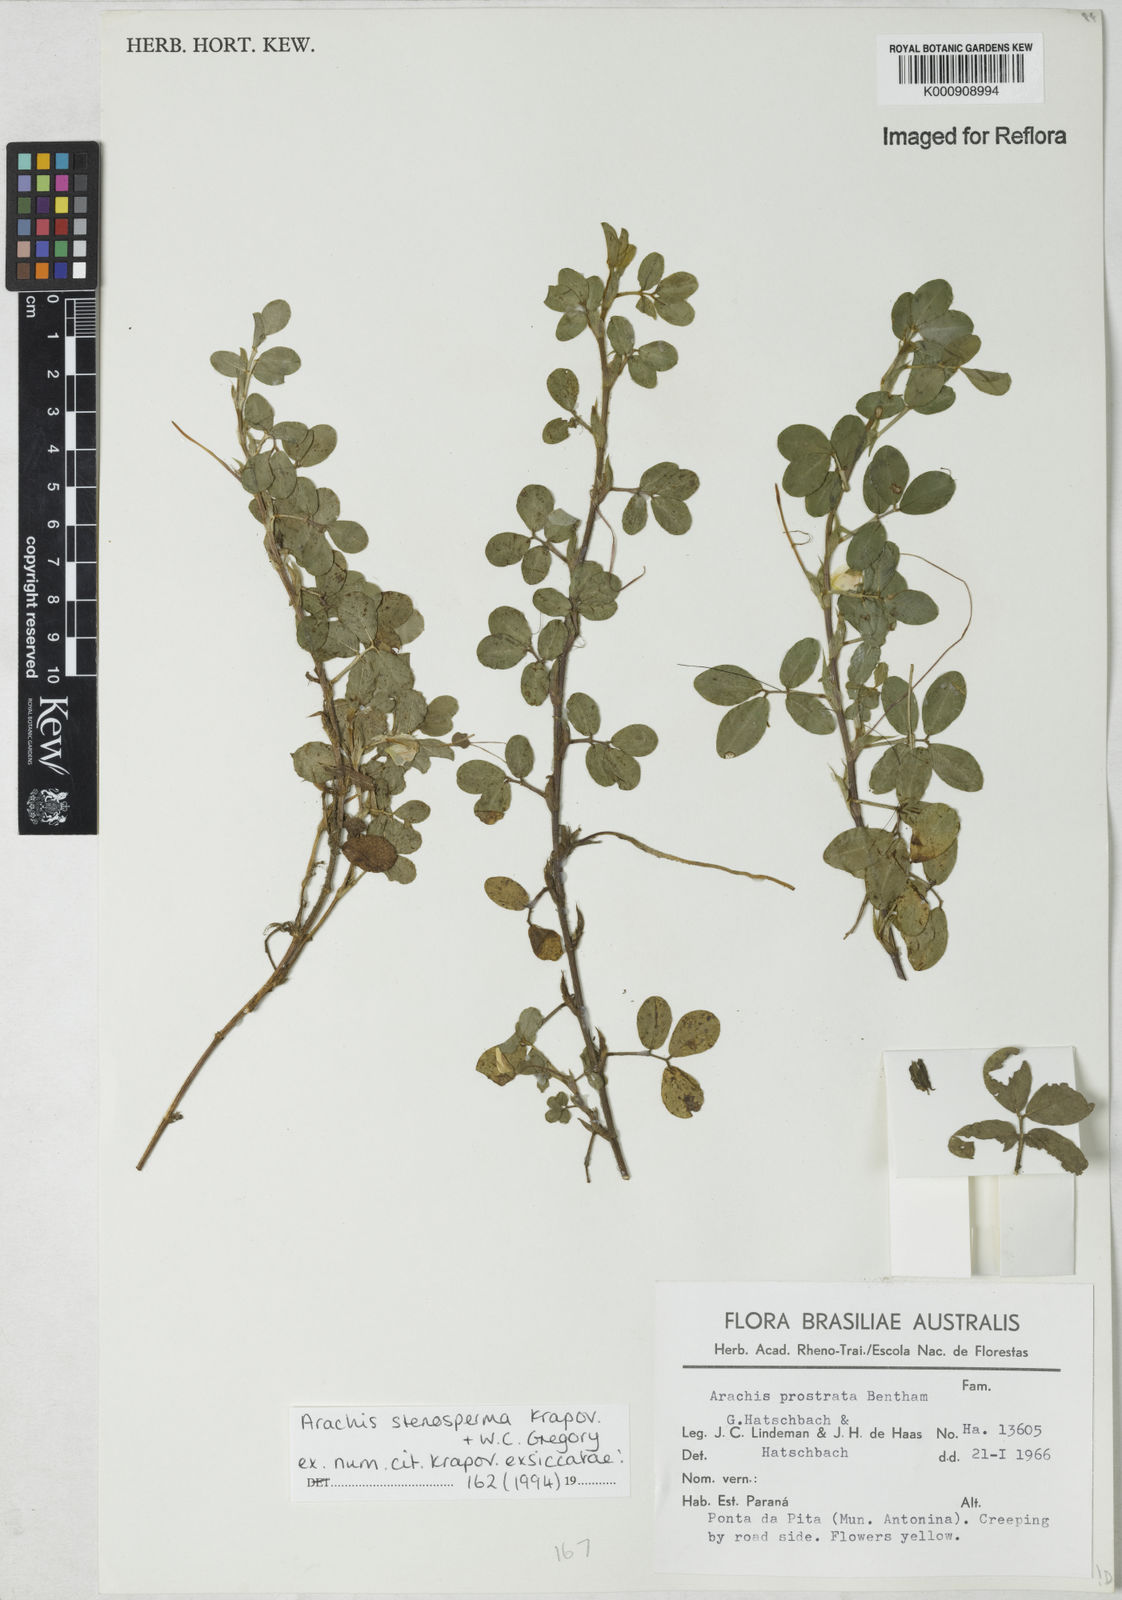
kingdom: Plantae
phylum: Tracheophyta
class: Magnoliopsida
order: Fabales
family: Fabaceae
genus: Arachis
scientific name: Arachis stenosperma
